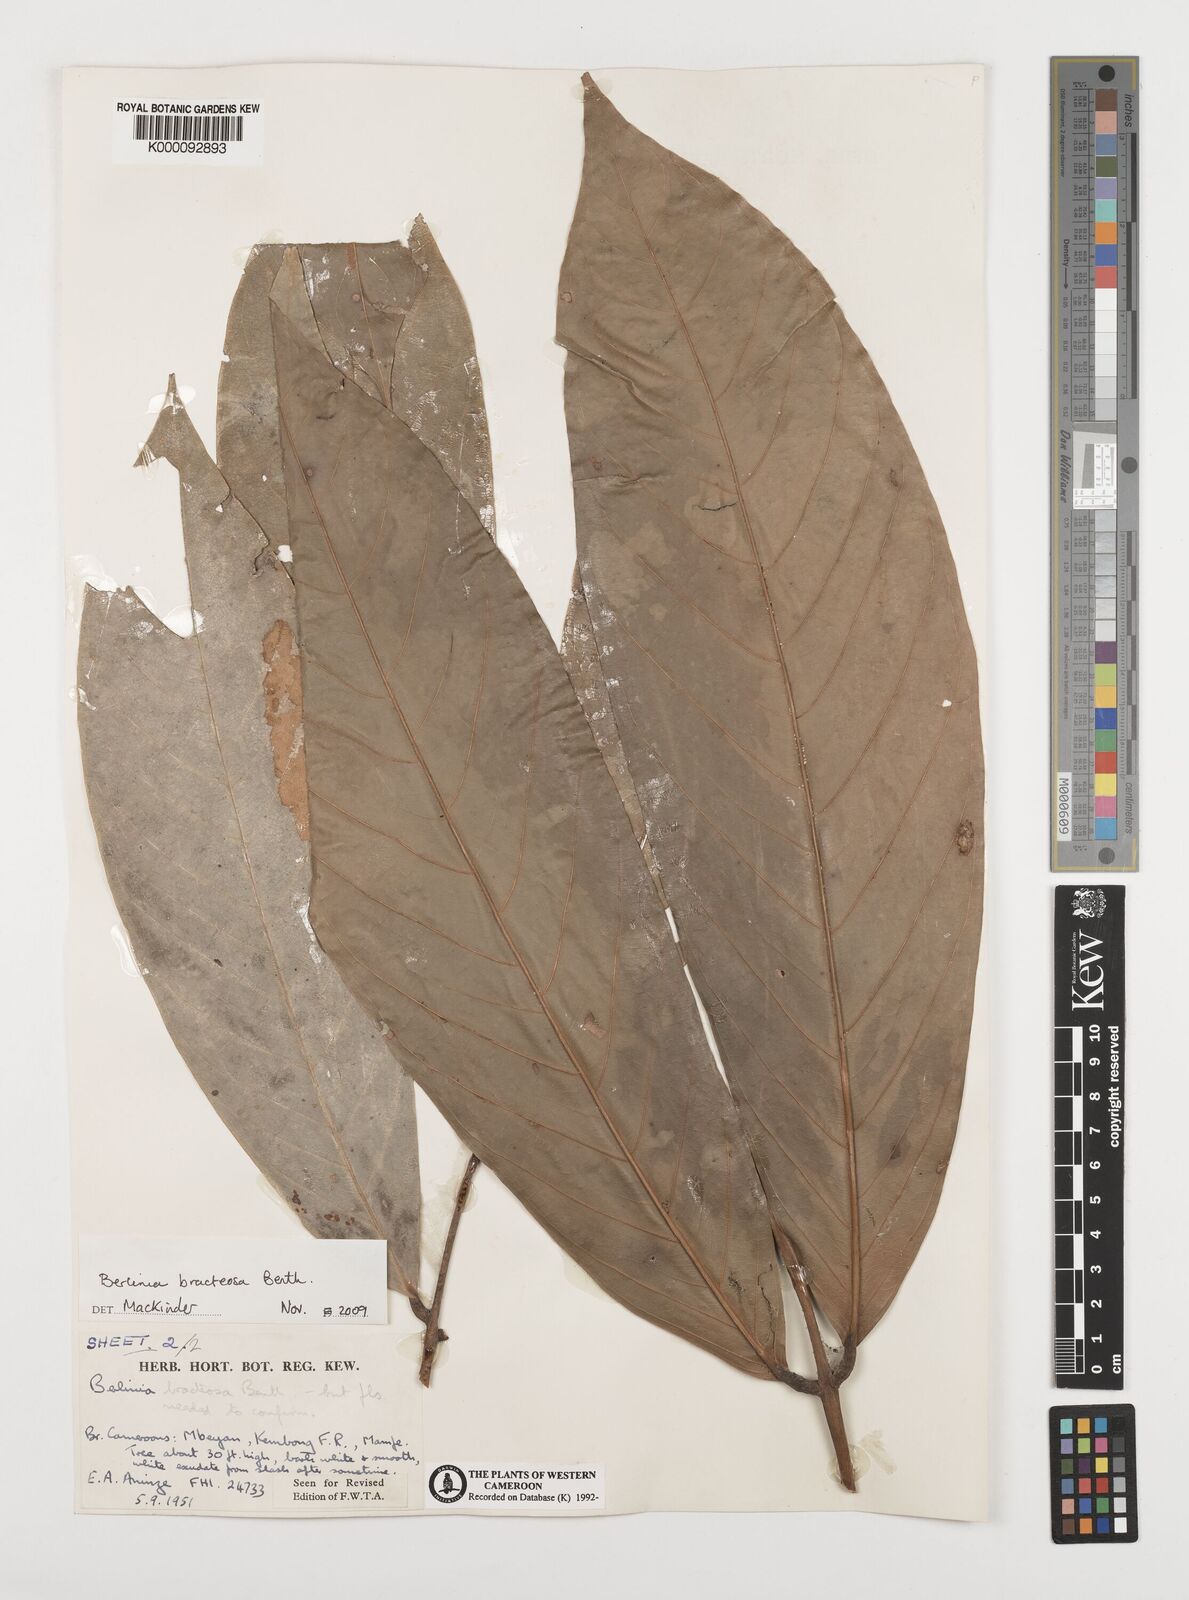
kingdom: Plantae
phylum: Tracheophyta
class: Magnoliopsida
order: Fabales
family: Fabaceae
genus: Berlinia
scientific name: Berlinia bracteosa
